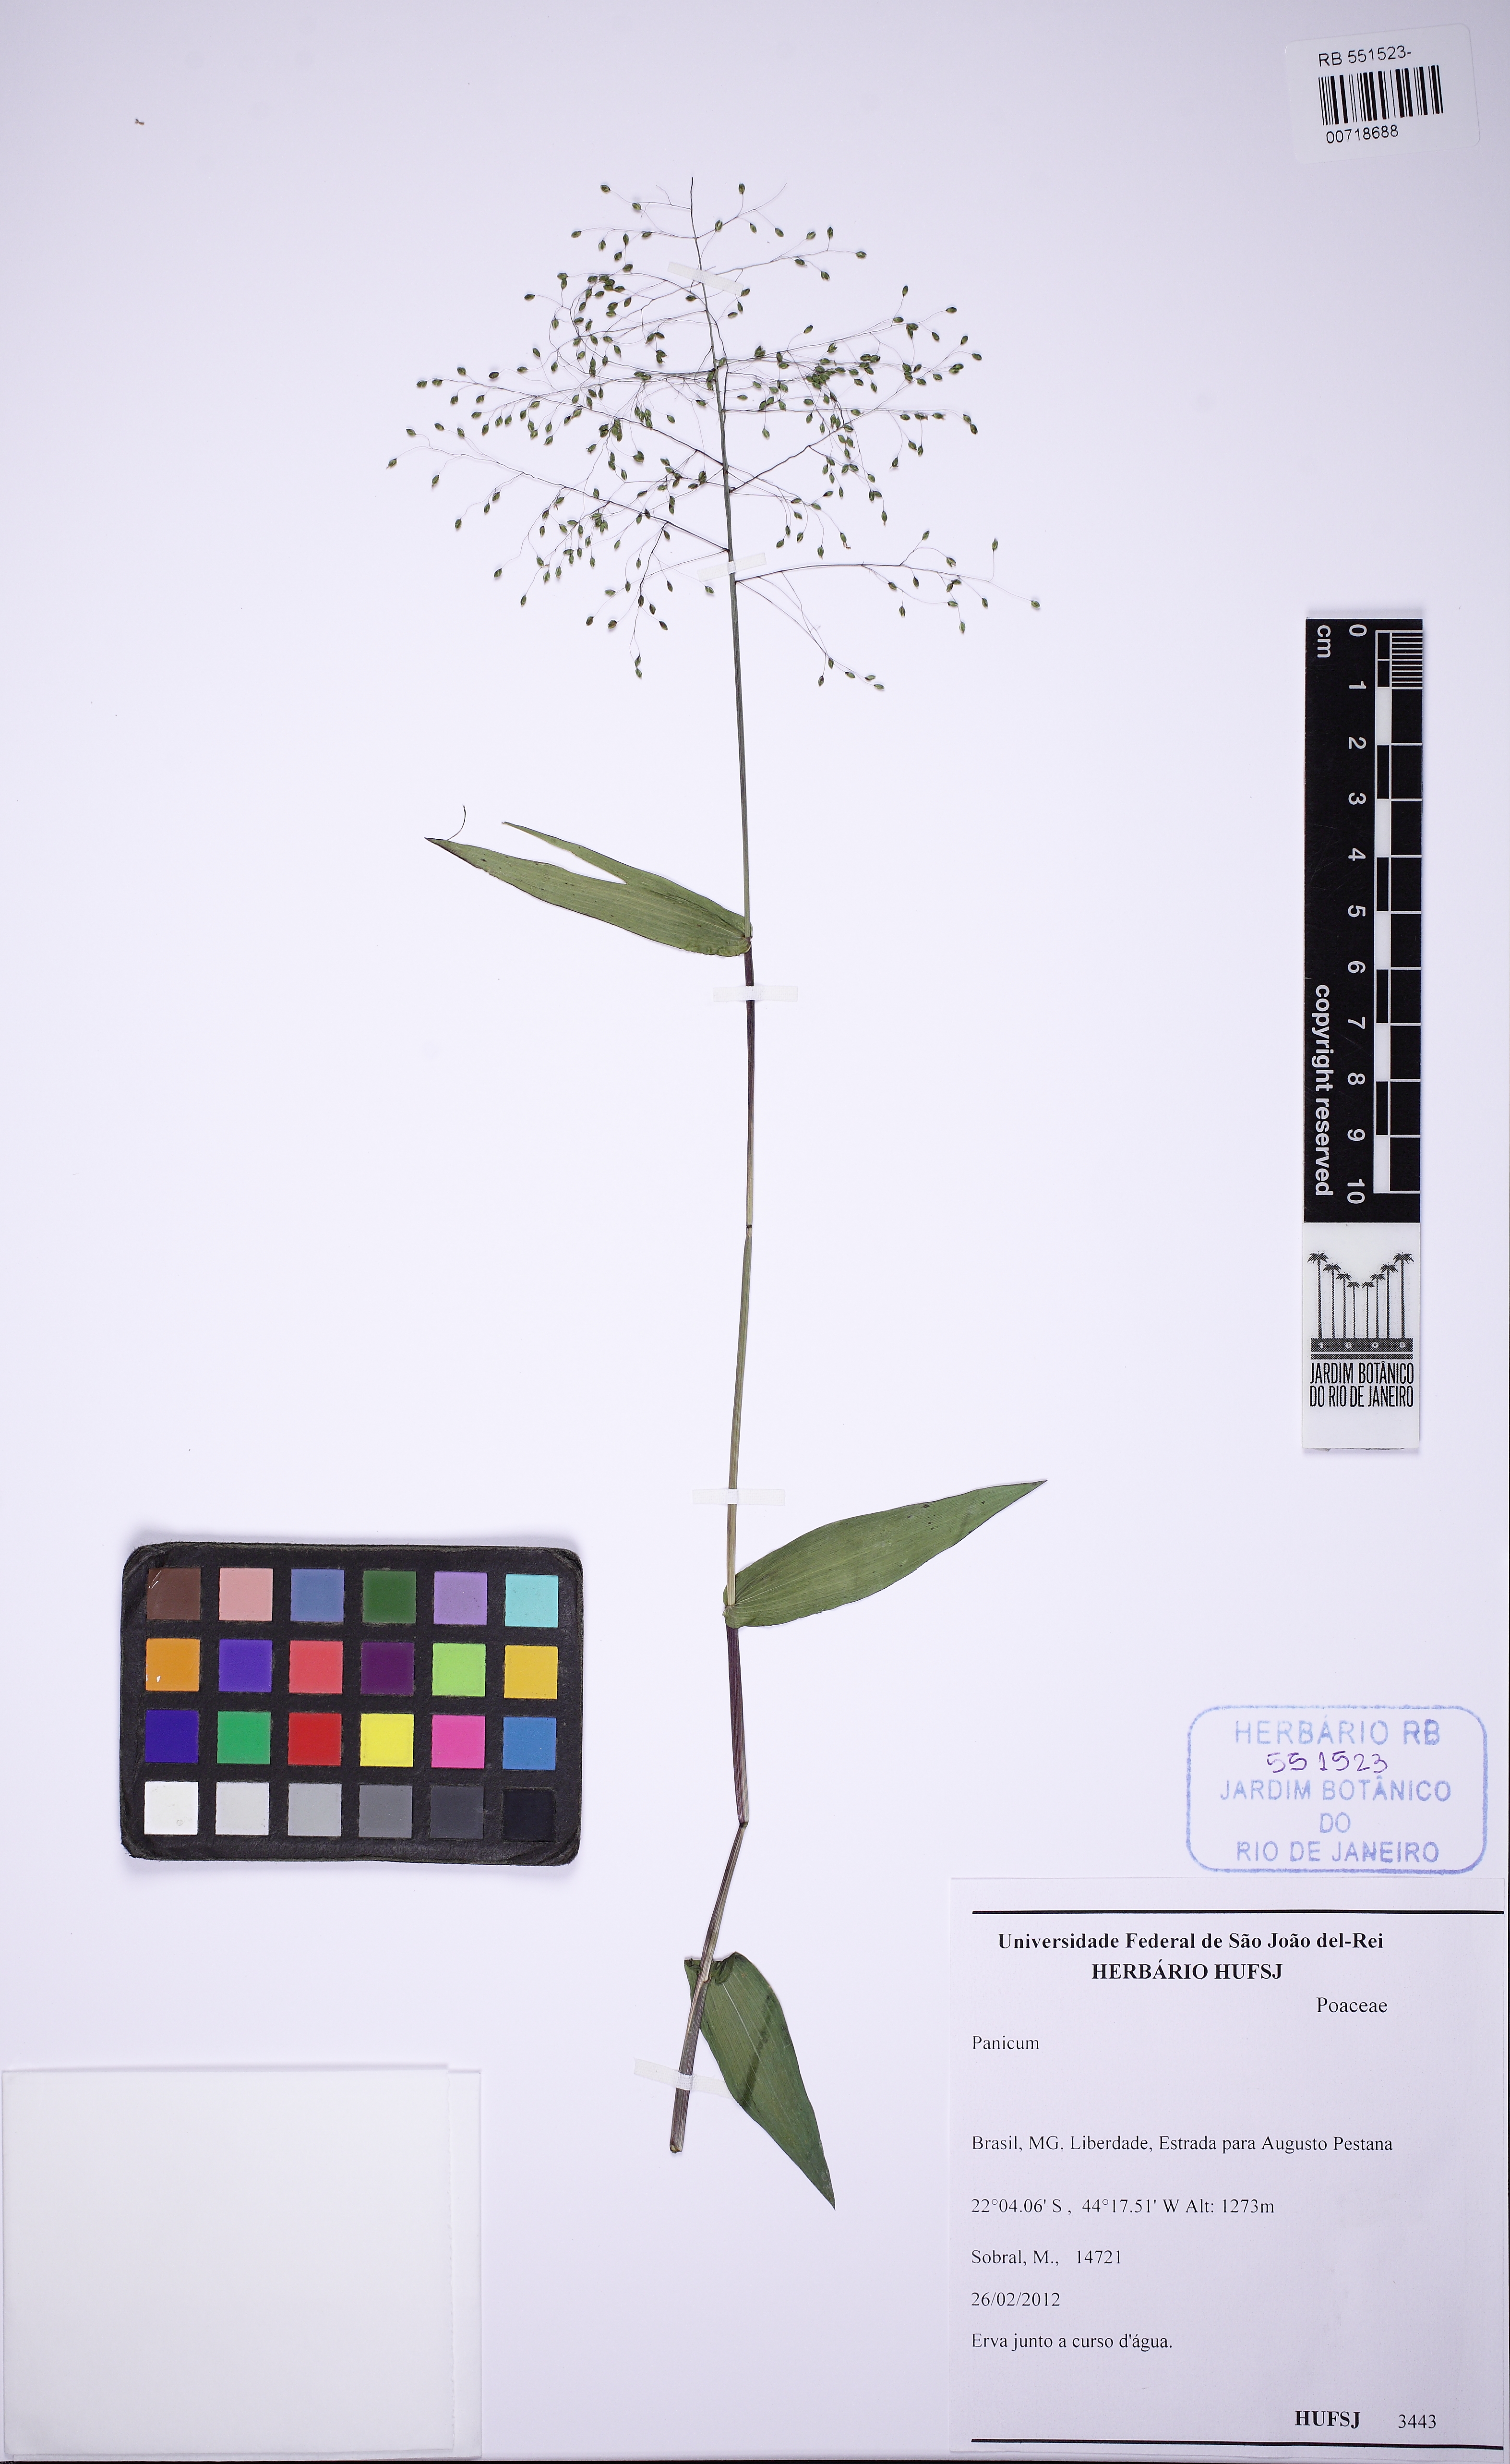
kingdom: Plantae
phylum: Tracheophyta
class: Liliopsida
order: Poales
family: Poaceae
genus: Trichanthecium
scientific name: Trichanthecium schwackeanum
